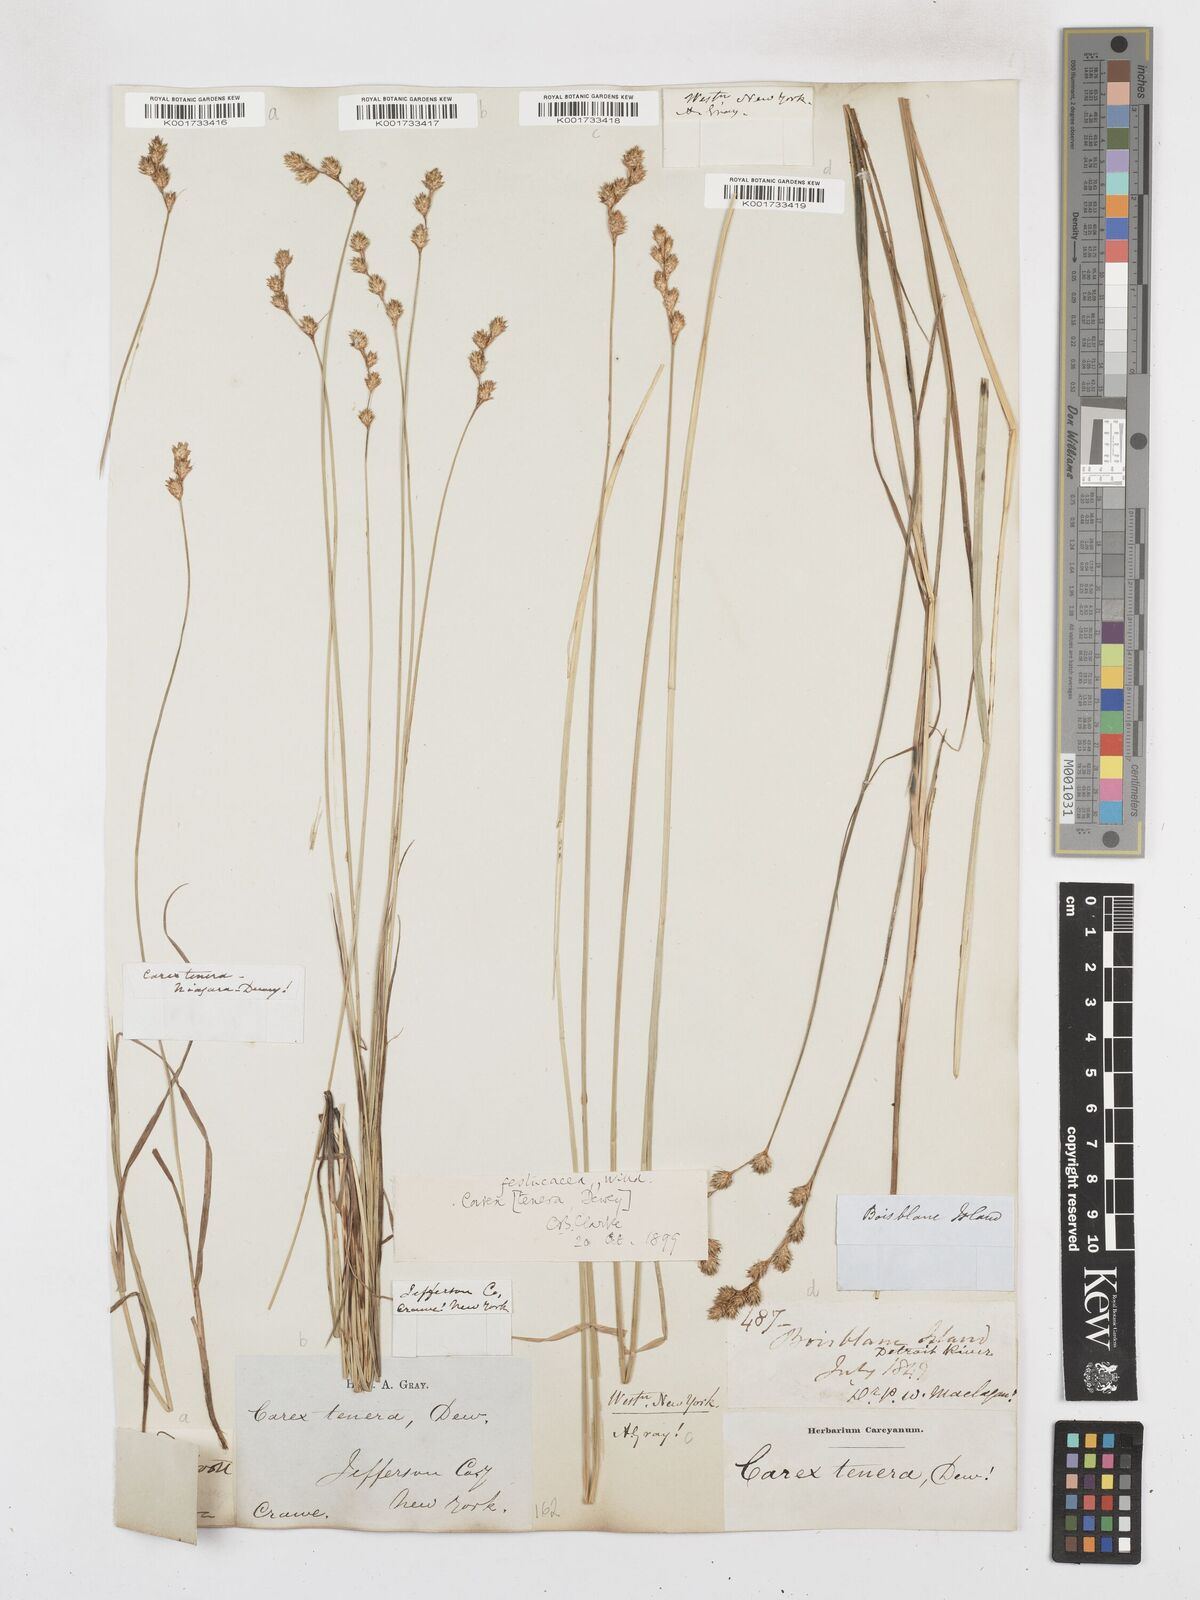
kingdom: Plantae
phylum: Tracheophyta
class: Liliopsida
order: Poales
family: Cyperaceae
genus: Carex
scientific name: Carex tenera
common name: Broad-fruited sedge
